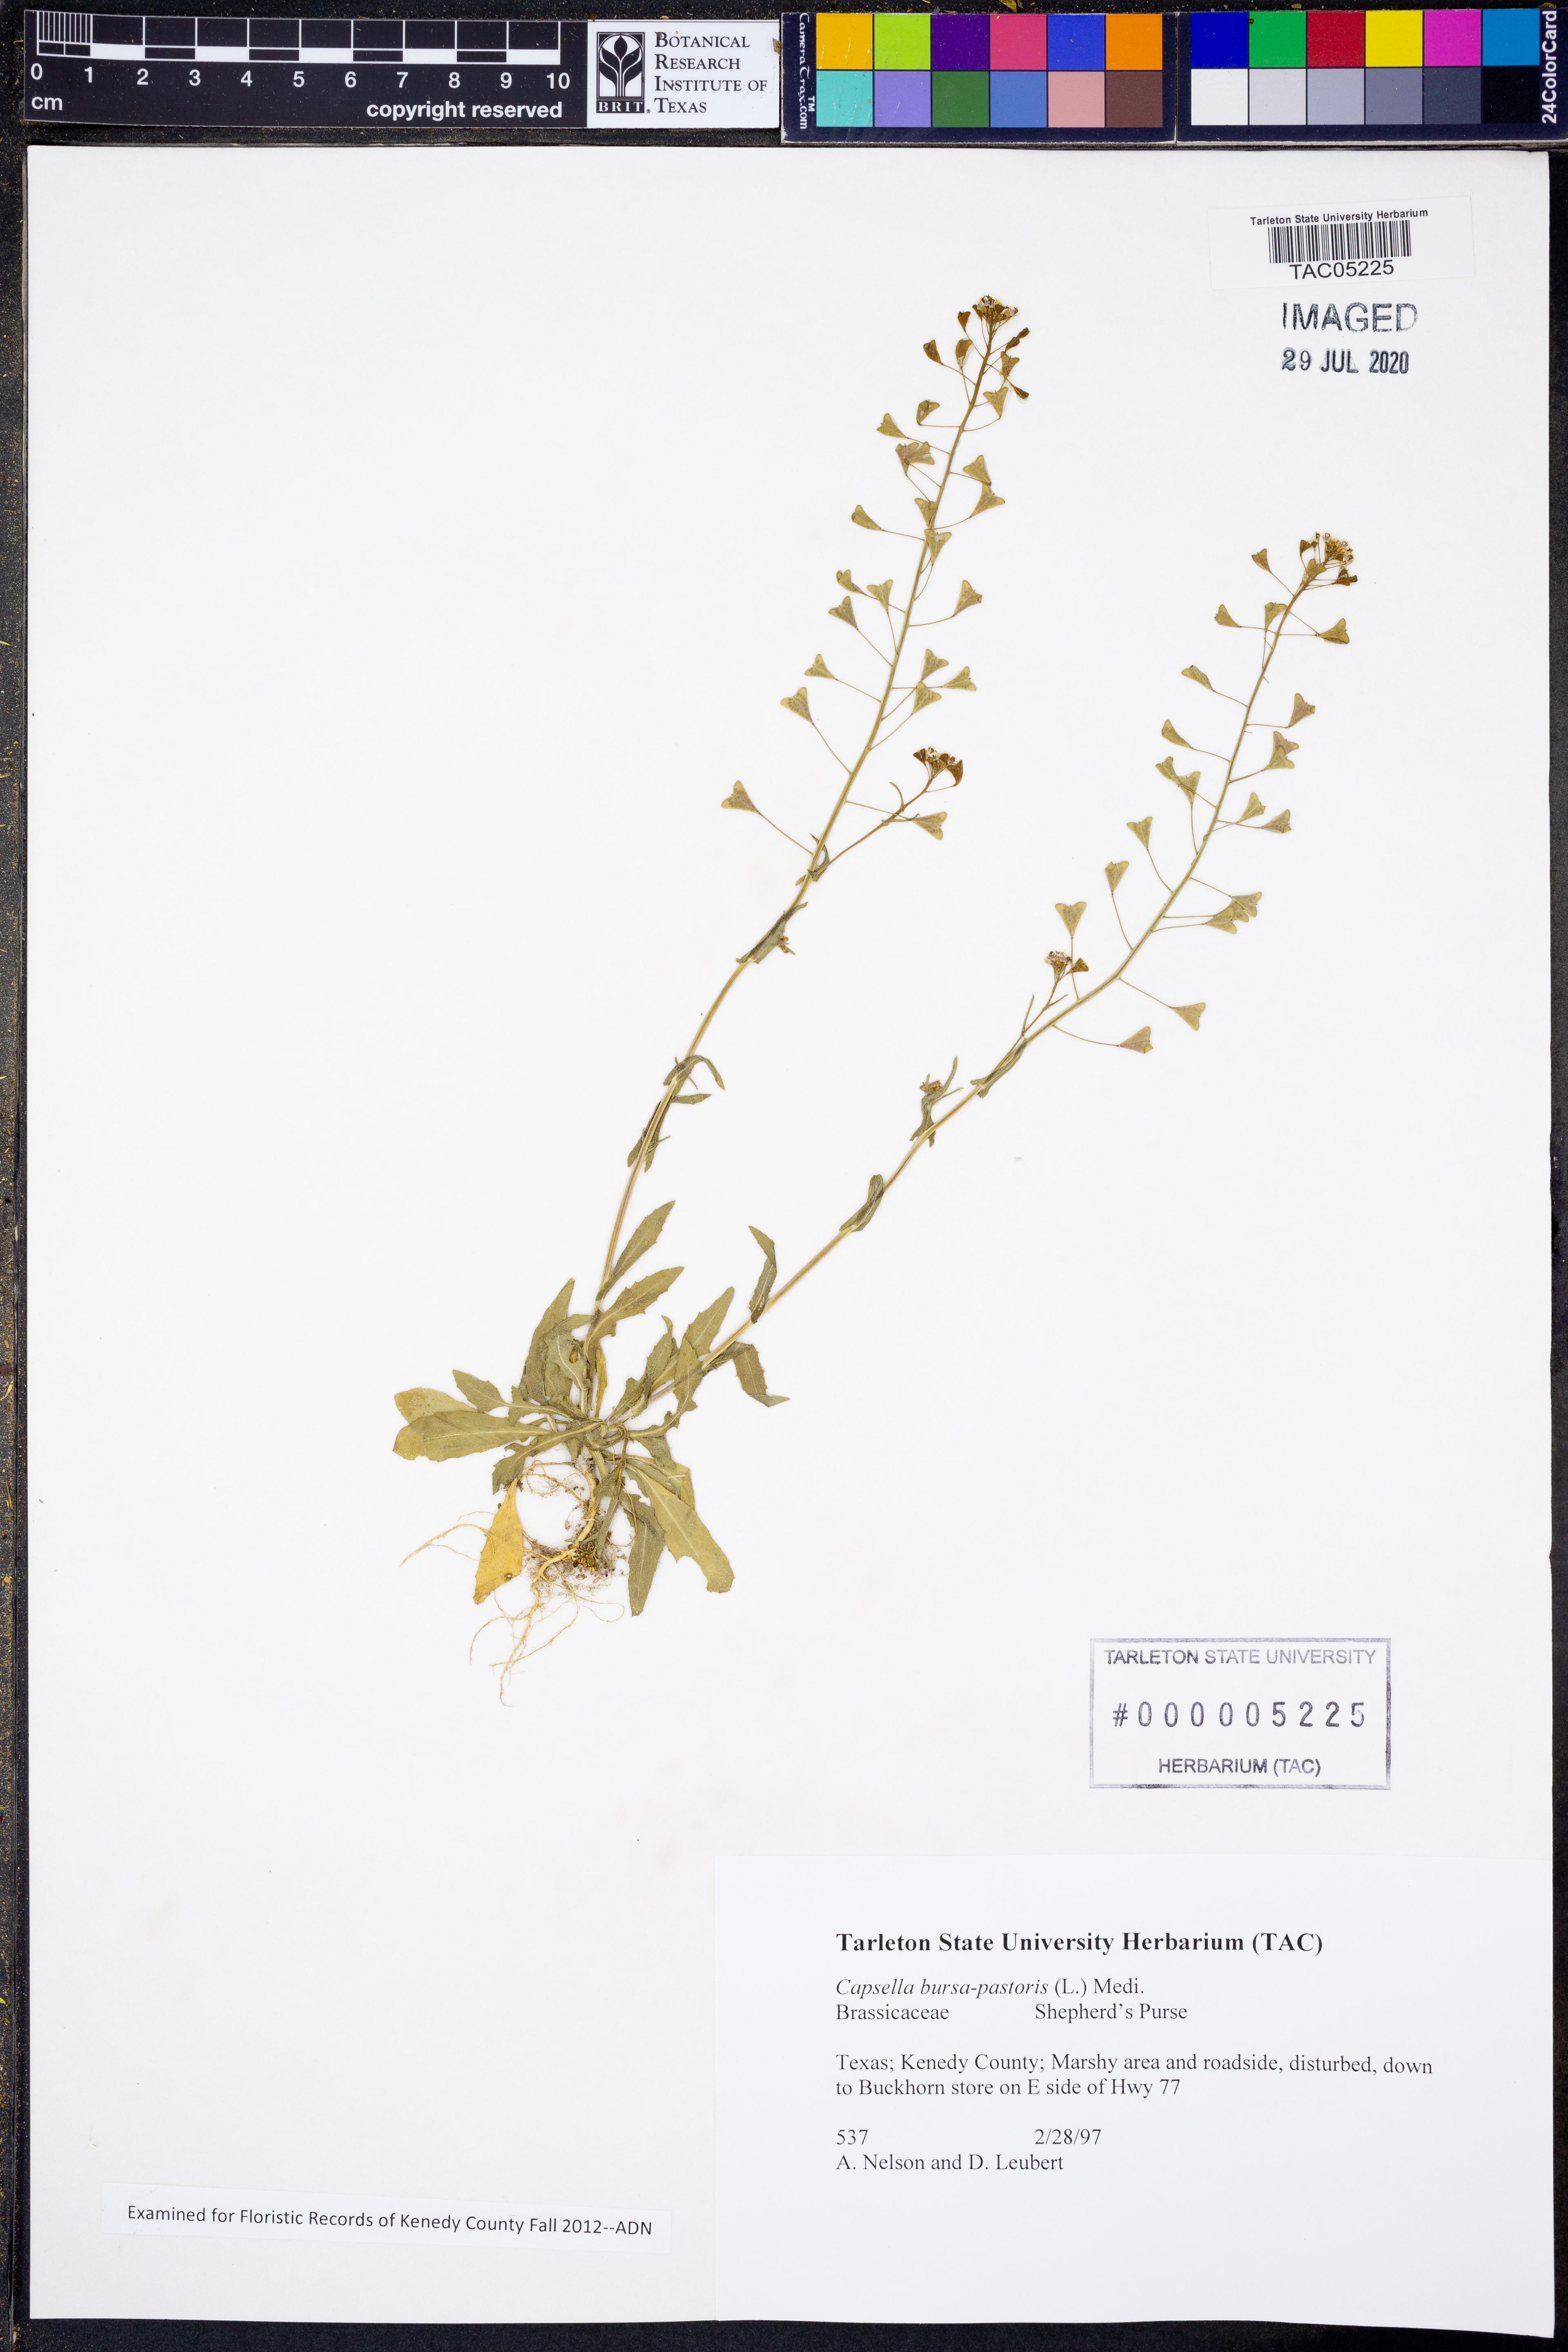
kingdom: Plantae
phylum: Tracheophyta
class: Magnoliopsida
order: Brassicales
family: Brassicaceae
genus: Capsella
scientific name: Capsella bursa-pastoris
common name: Shepherd's purse
